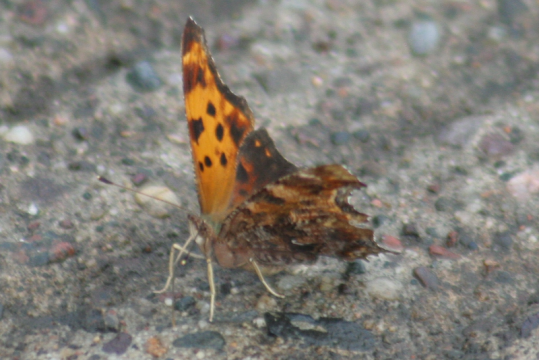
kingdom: Animalia
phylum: Arthropoda
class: Insecta
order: Lepidoptera
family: Nymphalidae
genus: Polygonia
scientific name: Polygonia comma
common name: Eastern Comma
